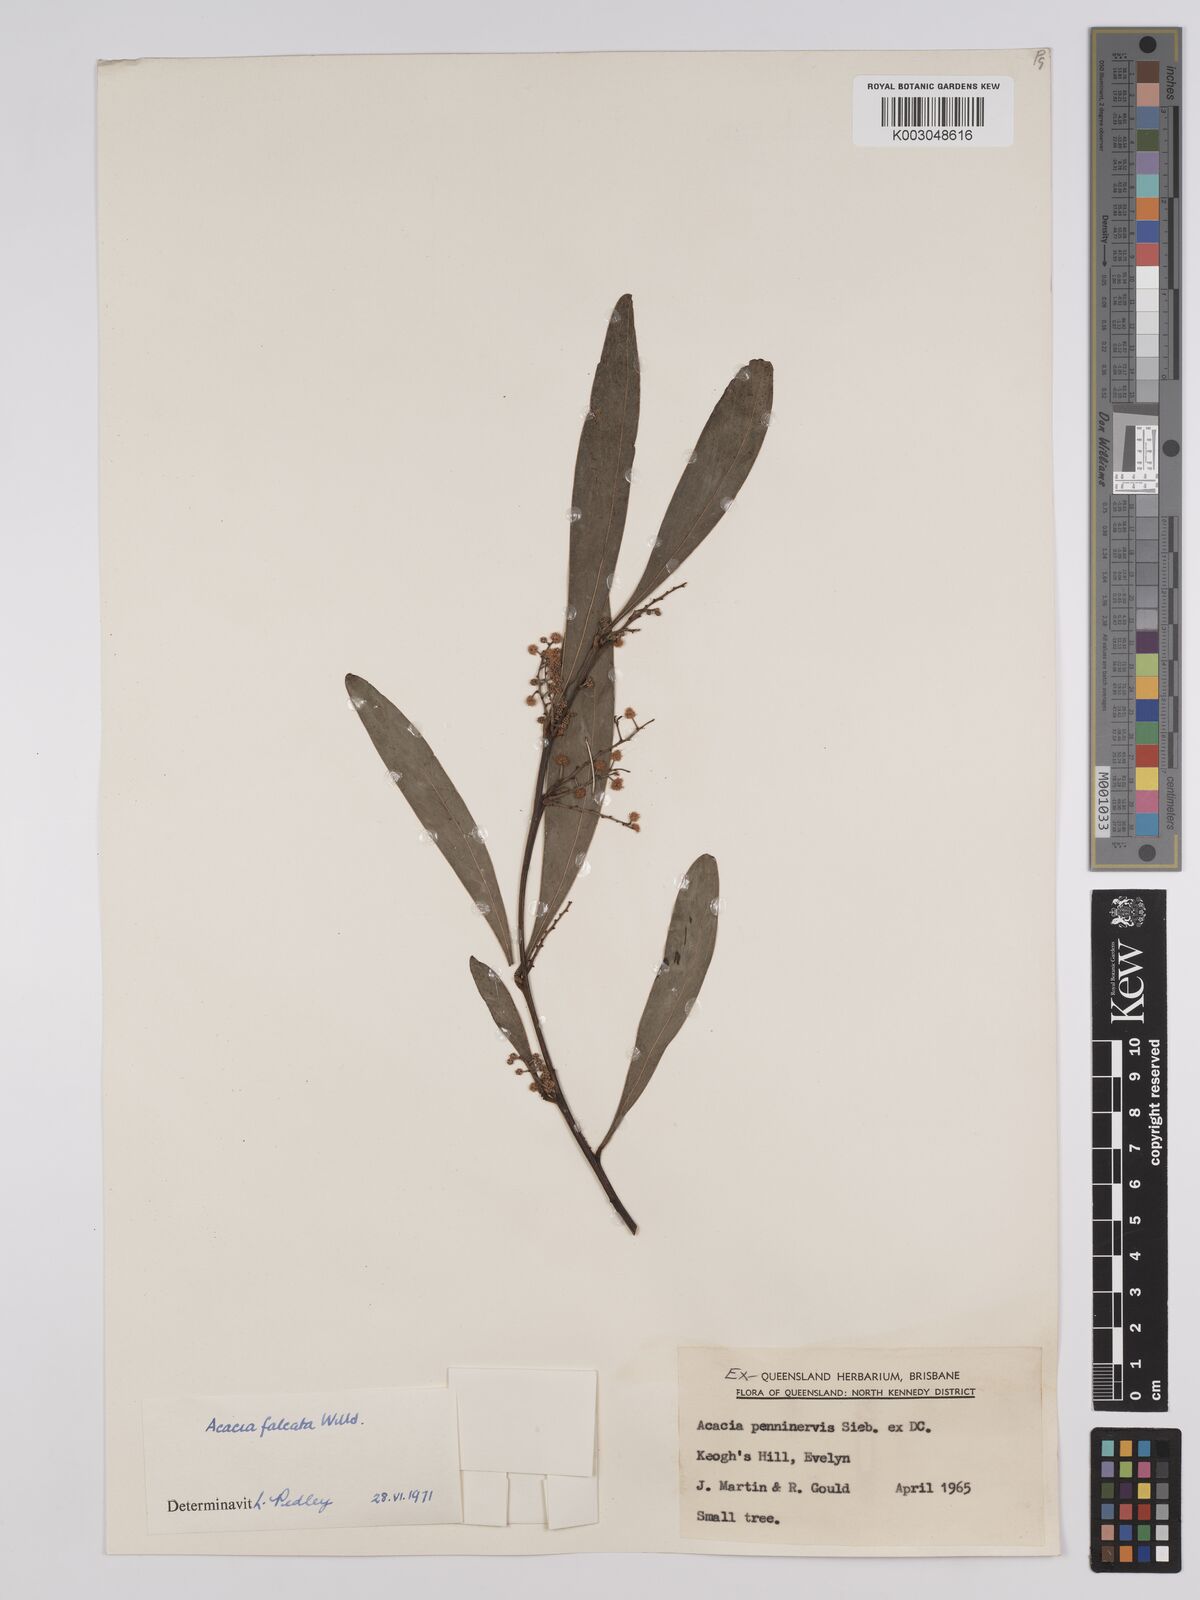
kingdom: Plantae
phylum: Tracheophyta
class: Magnoliopsida
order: Fabales
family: Fabaceae
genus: Acacia
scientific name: Acacia falcata
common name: Burra acacia
